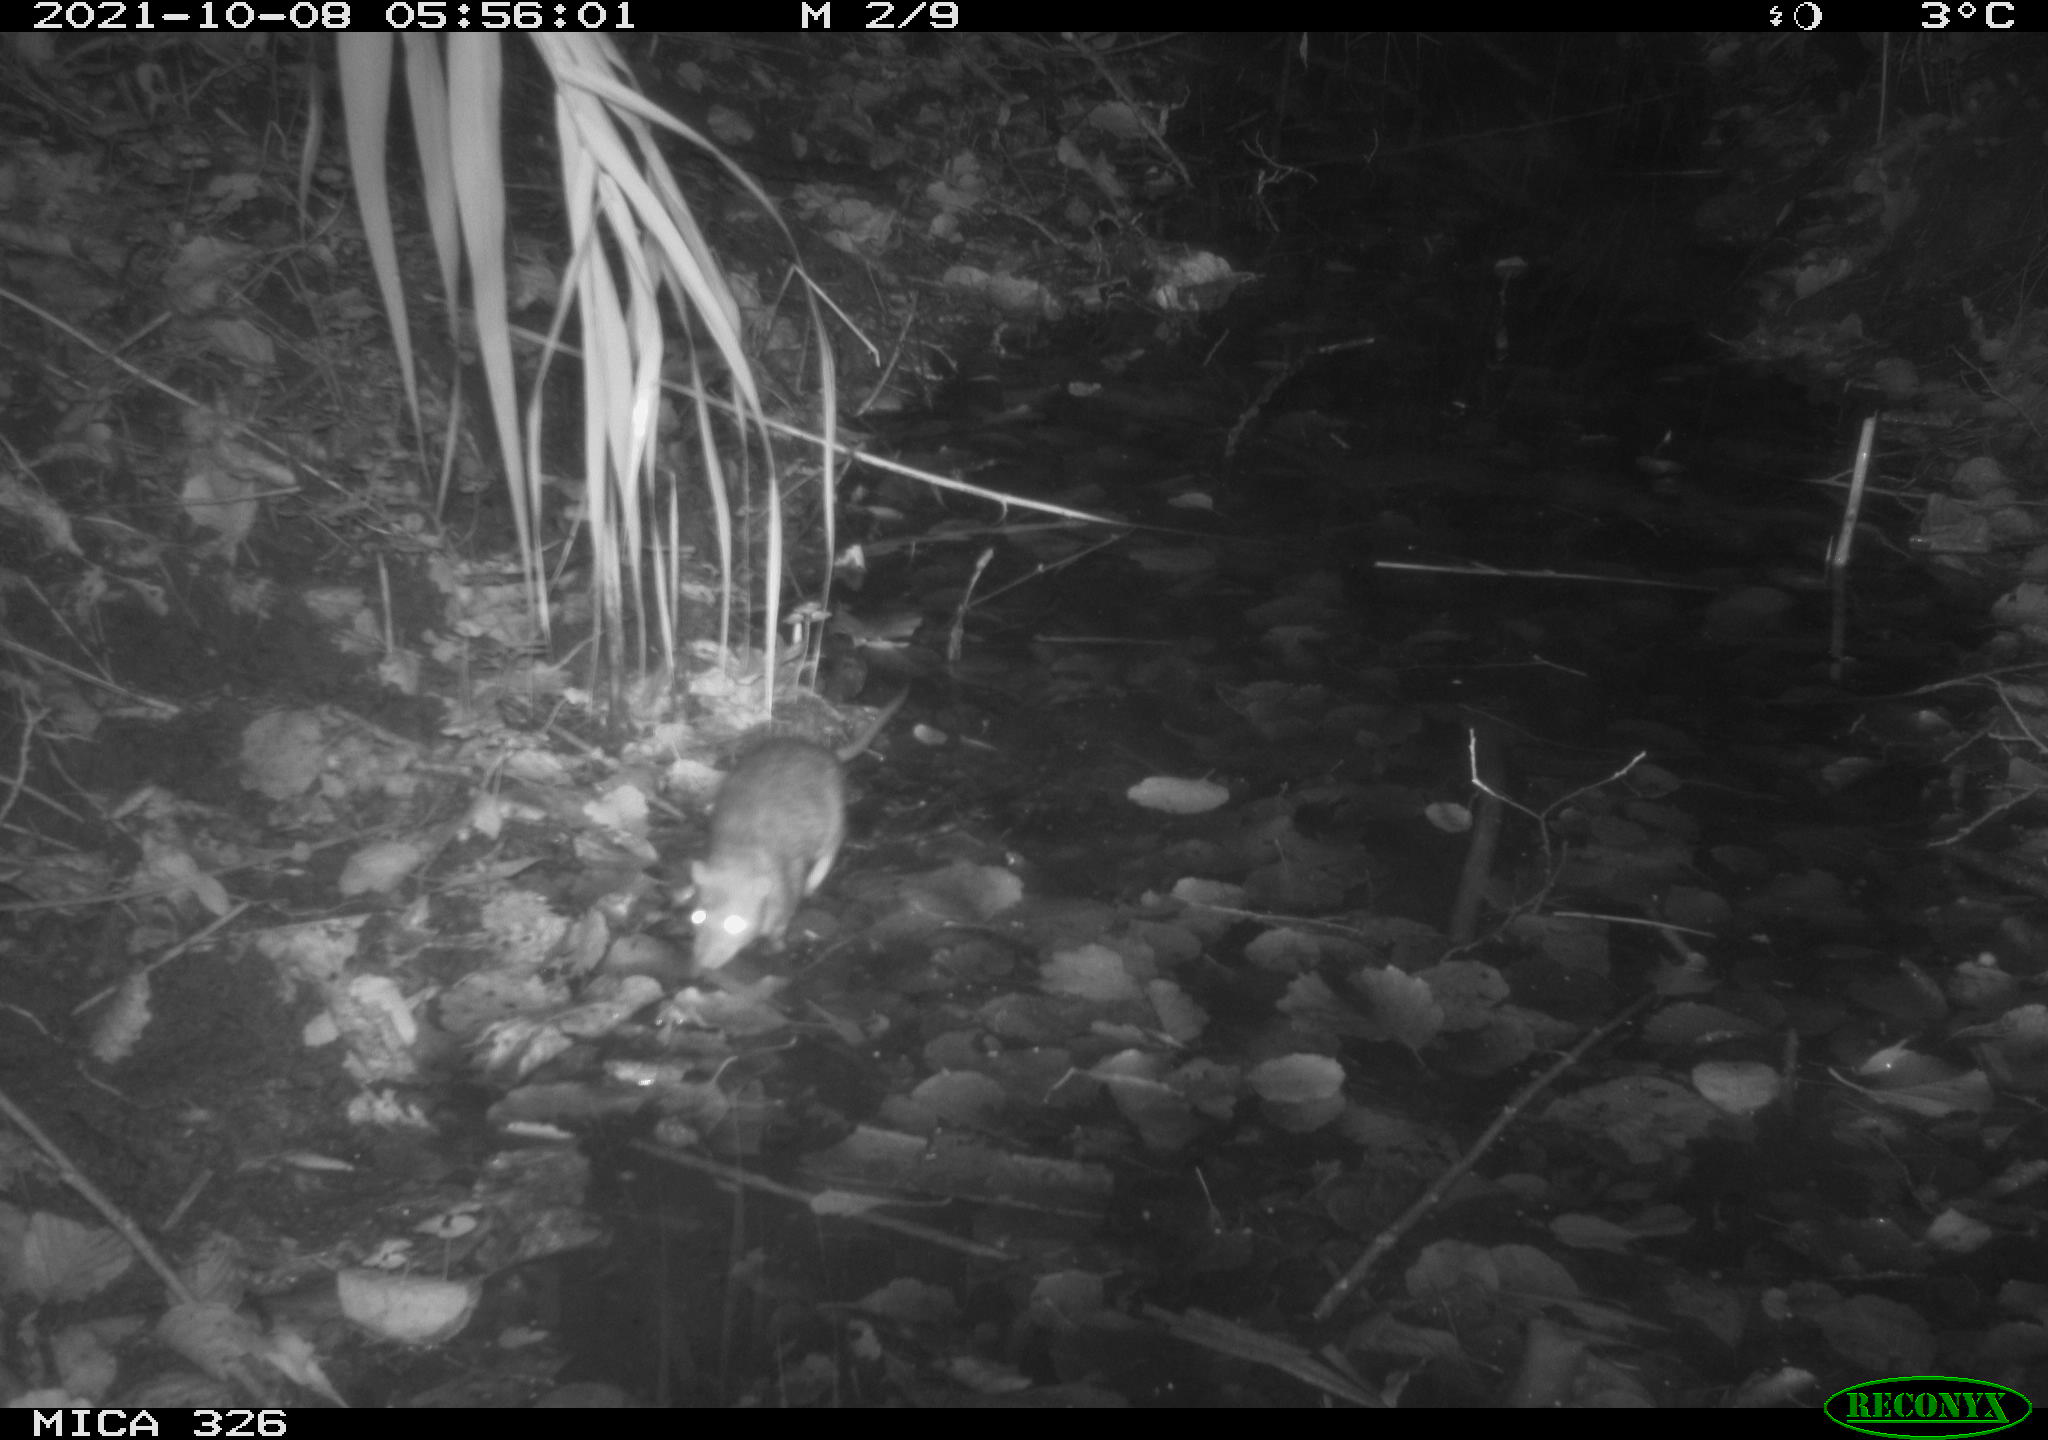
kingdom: Animalia
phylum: Chordata
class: Mammalia
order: Rodentia
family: Muridae
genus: Rattus
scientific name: Rattus norvegicus
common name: Brown rat
